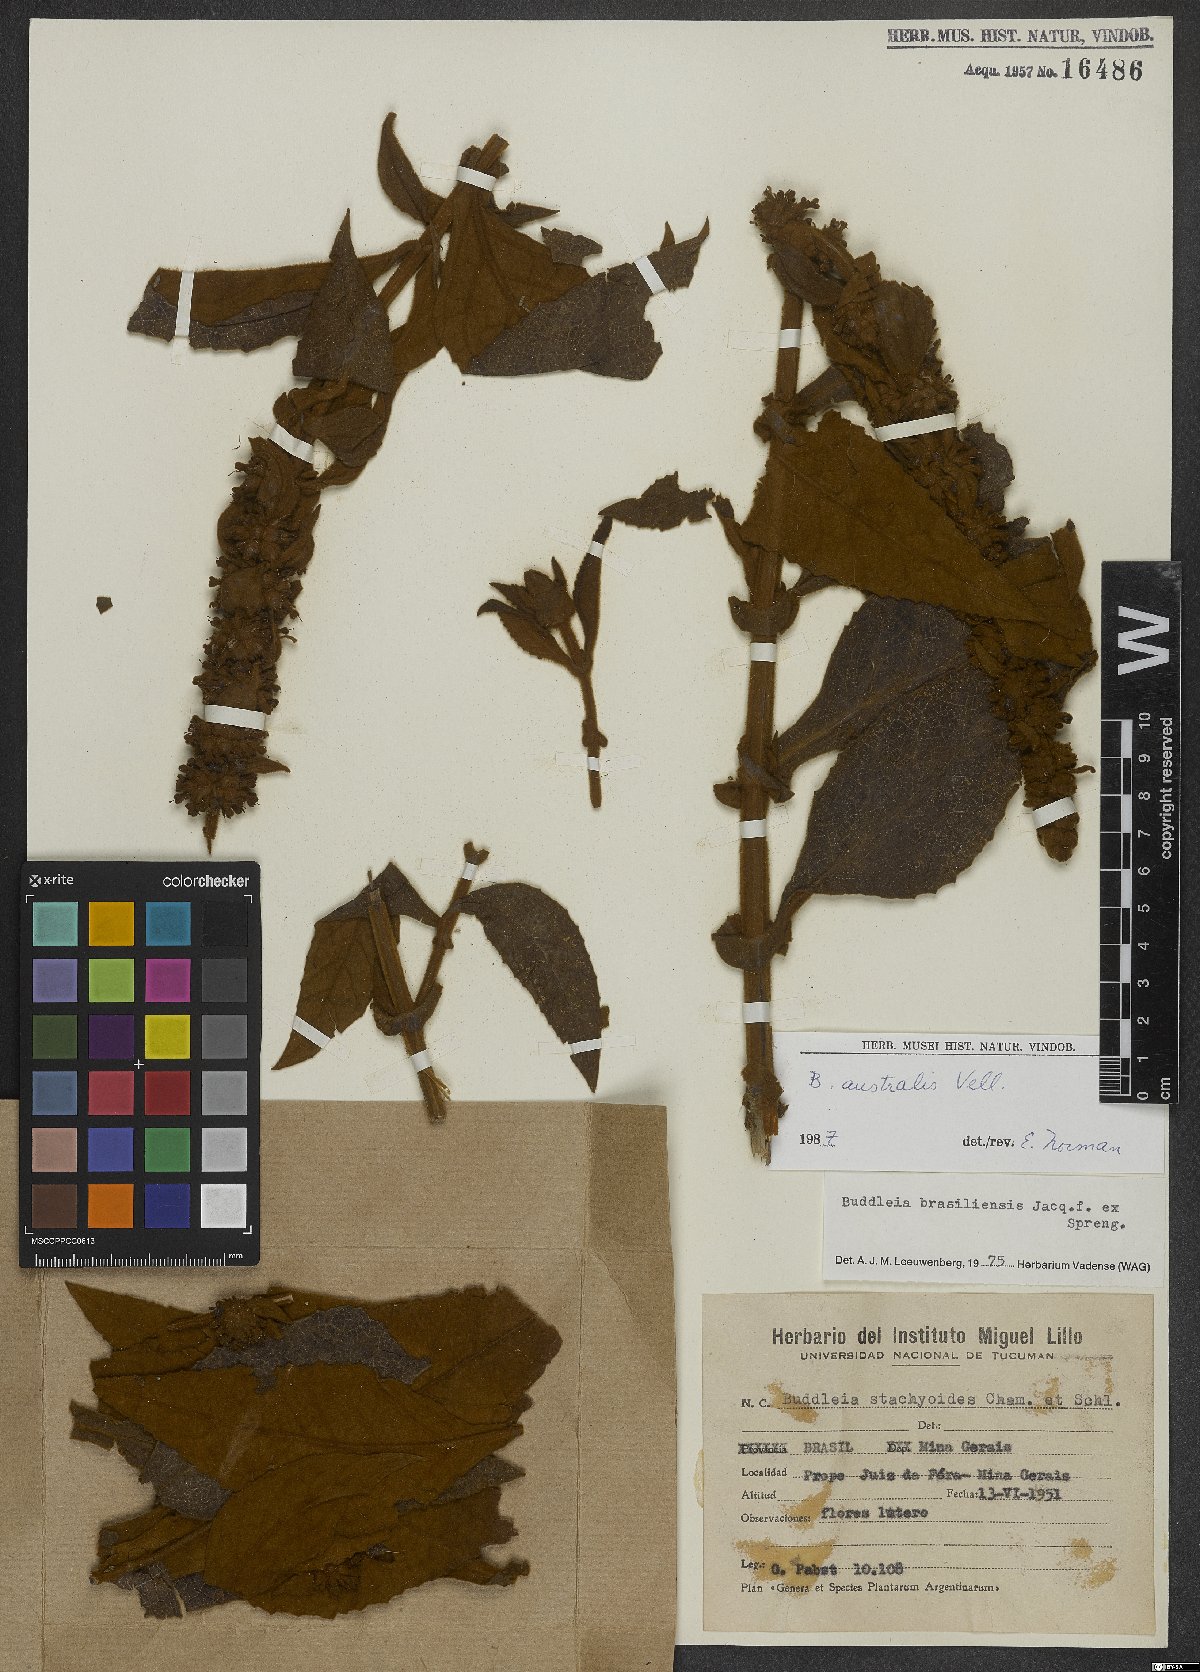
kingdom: Plantae
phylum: Tracheophyta
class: Magnoliopsida
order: Lamiales
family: Scrophulariaceae
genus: Buddleja
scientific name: Buddleja stachyoides
